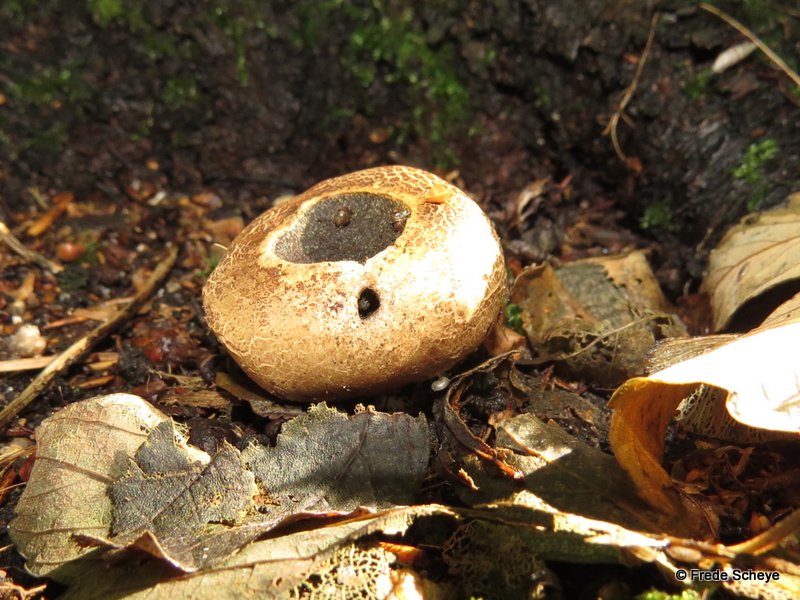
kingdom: Fungi
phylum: Basidiomycota
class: Agaricomycetes
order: Boletales
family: Sclerodermataceae
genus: Scleroderma
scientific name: Scleroderma verrucosum
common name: stilket bruskbold
